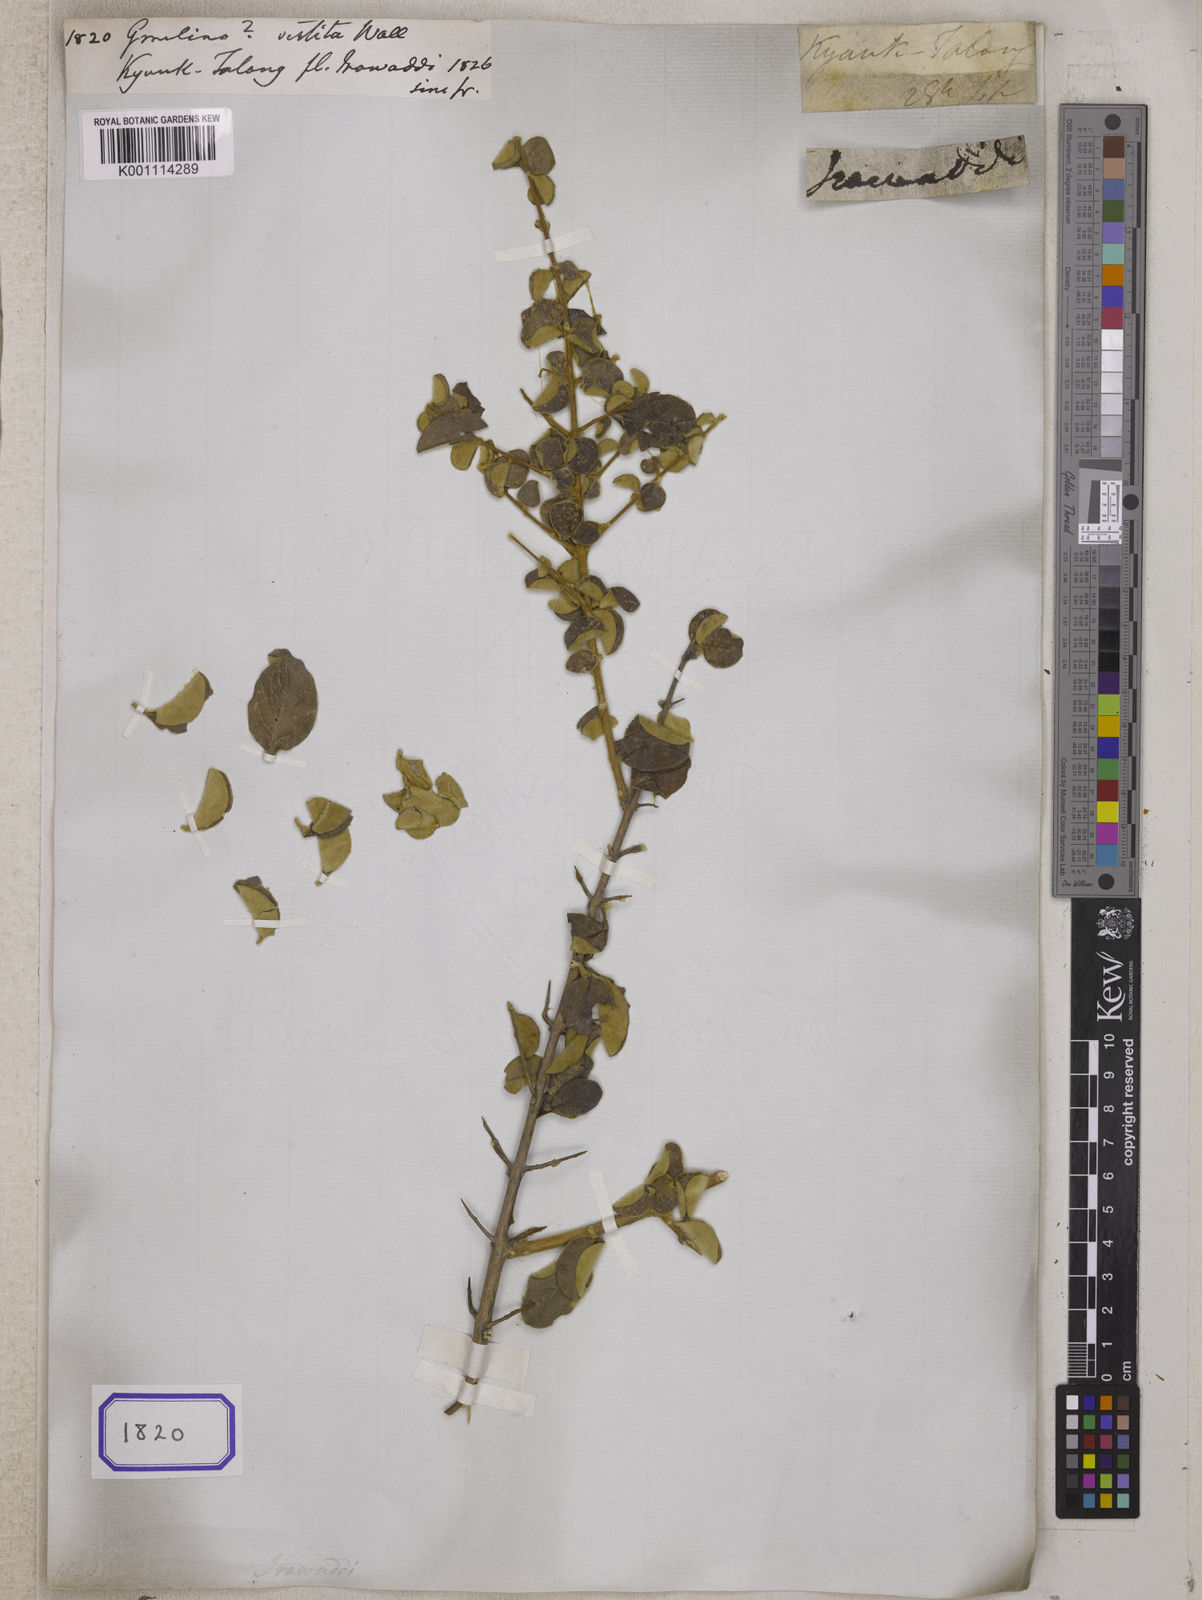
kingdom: Plantae
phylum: Tracheophyta
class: Magnoliopsida
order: Lamiales
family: Lamiaceae
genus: Gmelina
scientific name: Gmelina
